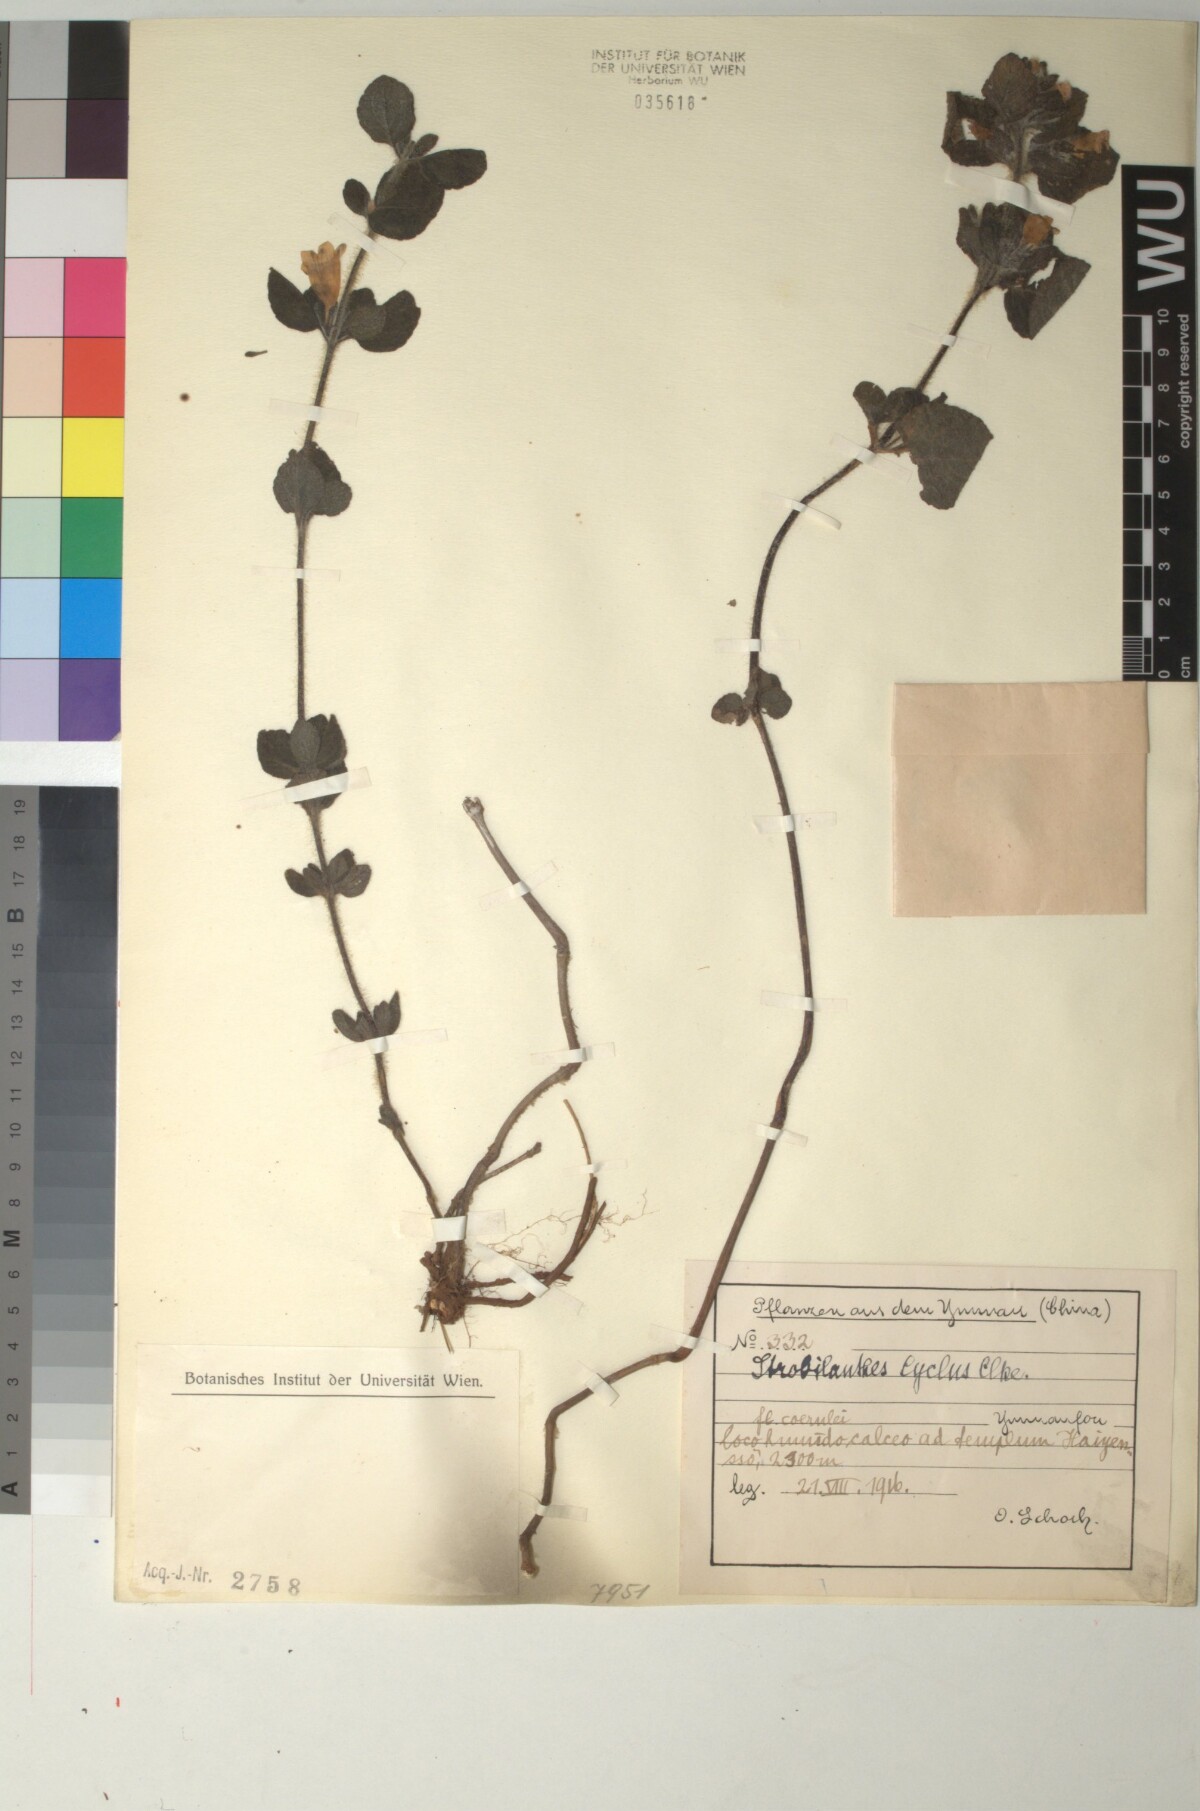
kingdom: Plantae
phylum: Tracheophyta
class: Magnoliopsida
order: Lamiales
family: Acanthaceae
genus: Strobilanthes
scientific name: Strobilanthes cycla
